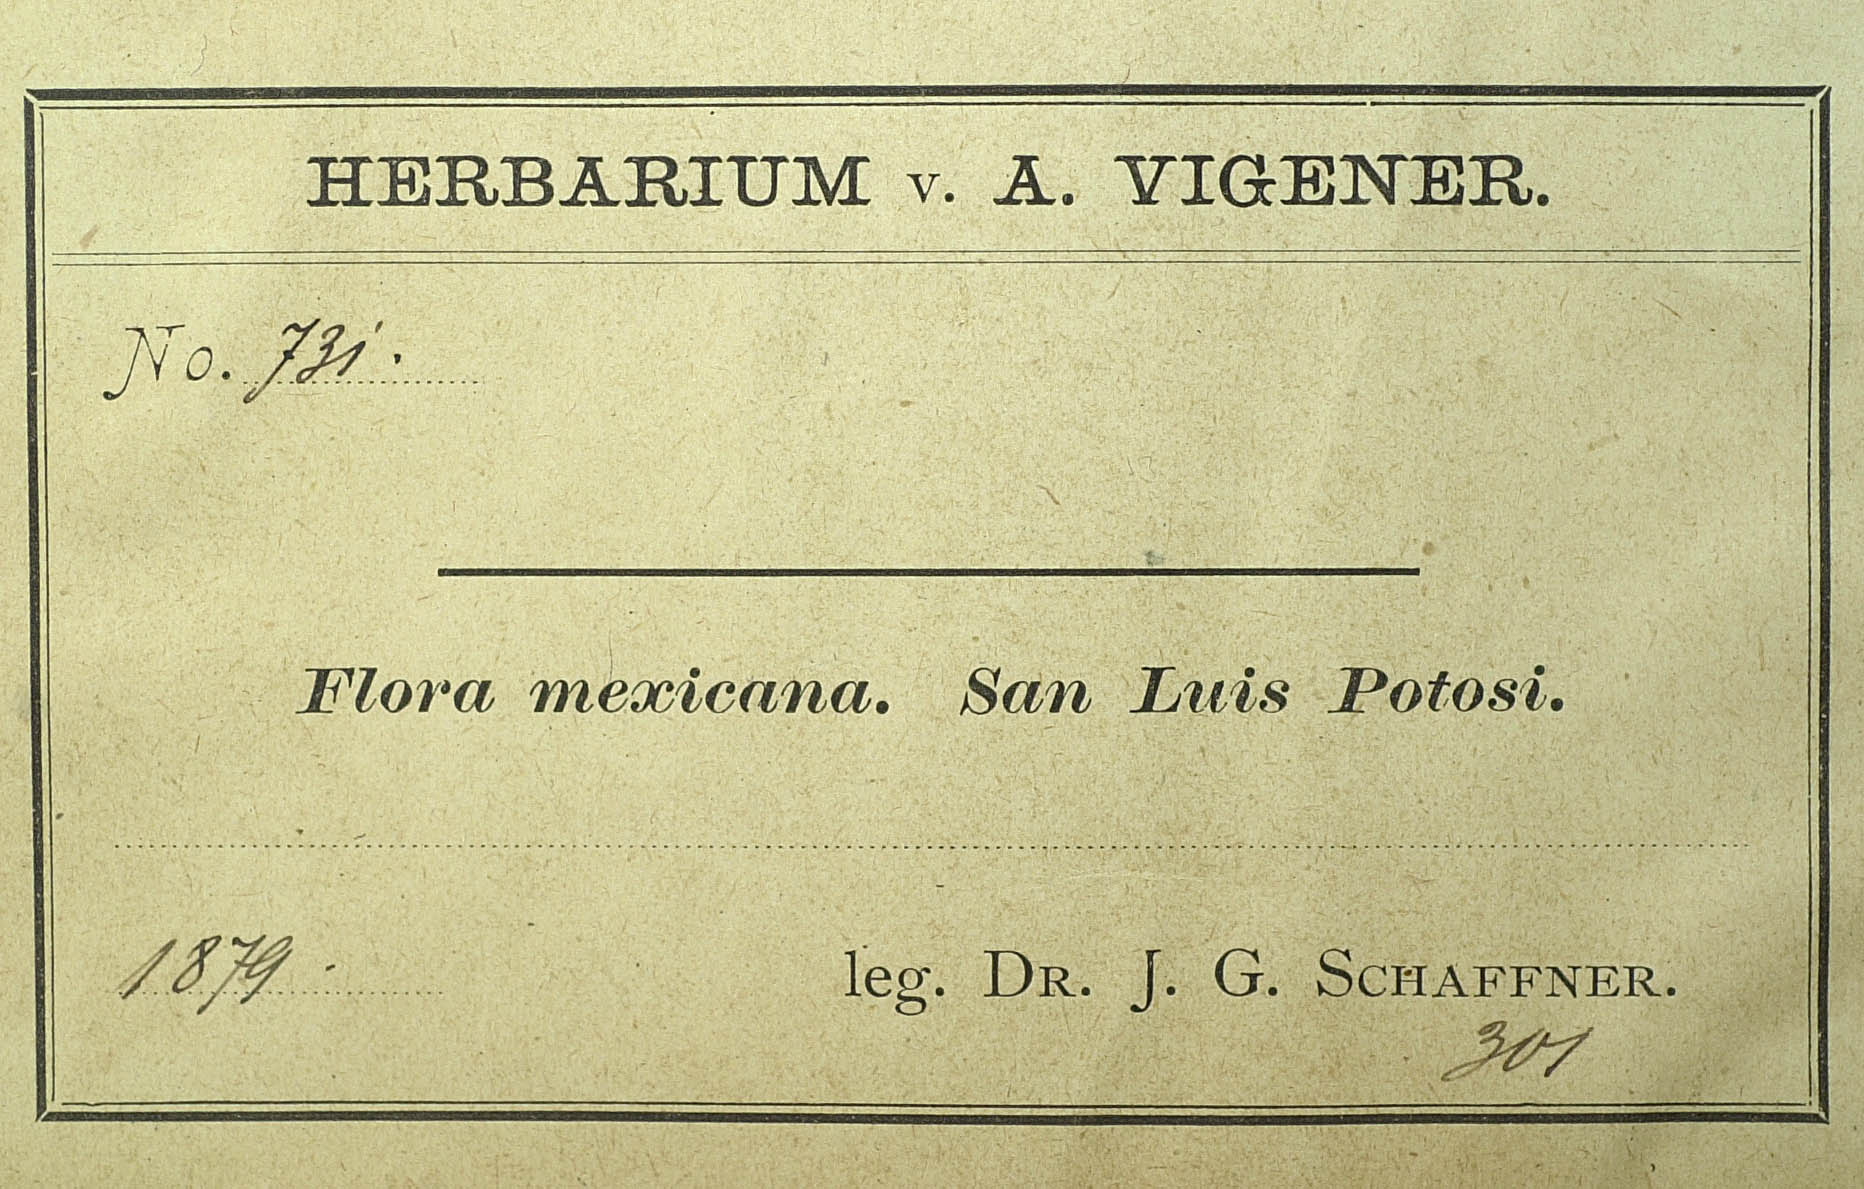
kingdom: Plantae
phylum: Tracheophyta
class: Magnoliopsida
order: Asterales
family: Asteraceae
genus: Verbesina
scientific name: Verbesina pedunculosa
